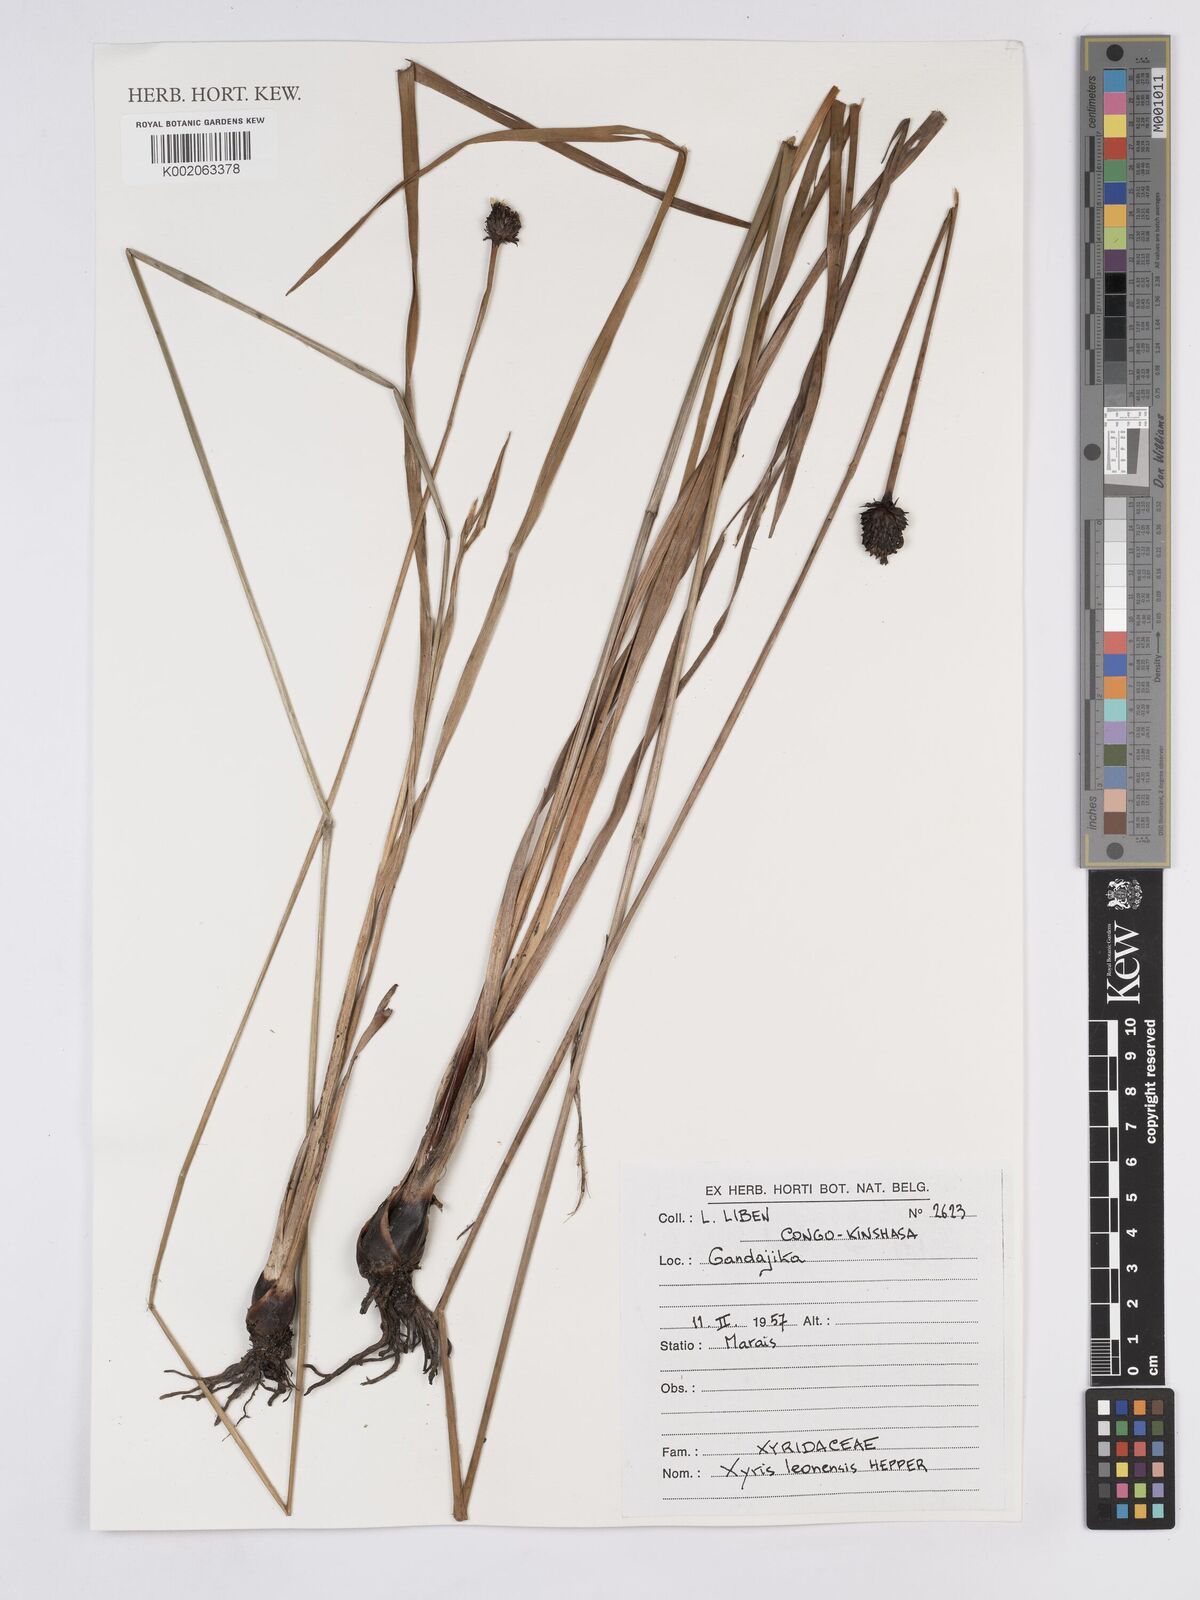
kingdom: Plantae
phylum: Tracheophyta
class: Liliopsida
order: Poales
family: Xyridaceae
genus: Xyris
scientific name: Xyris leonensis
